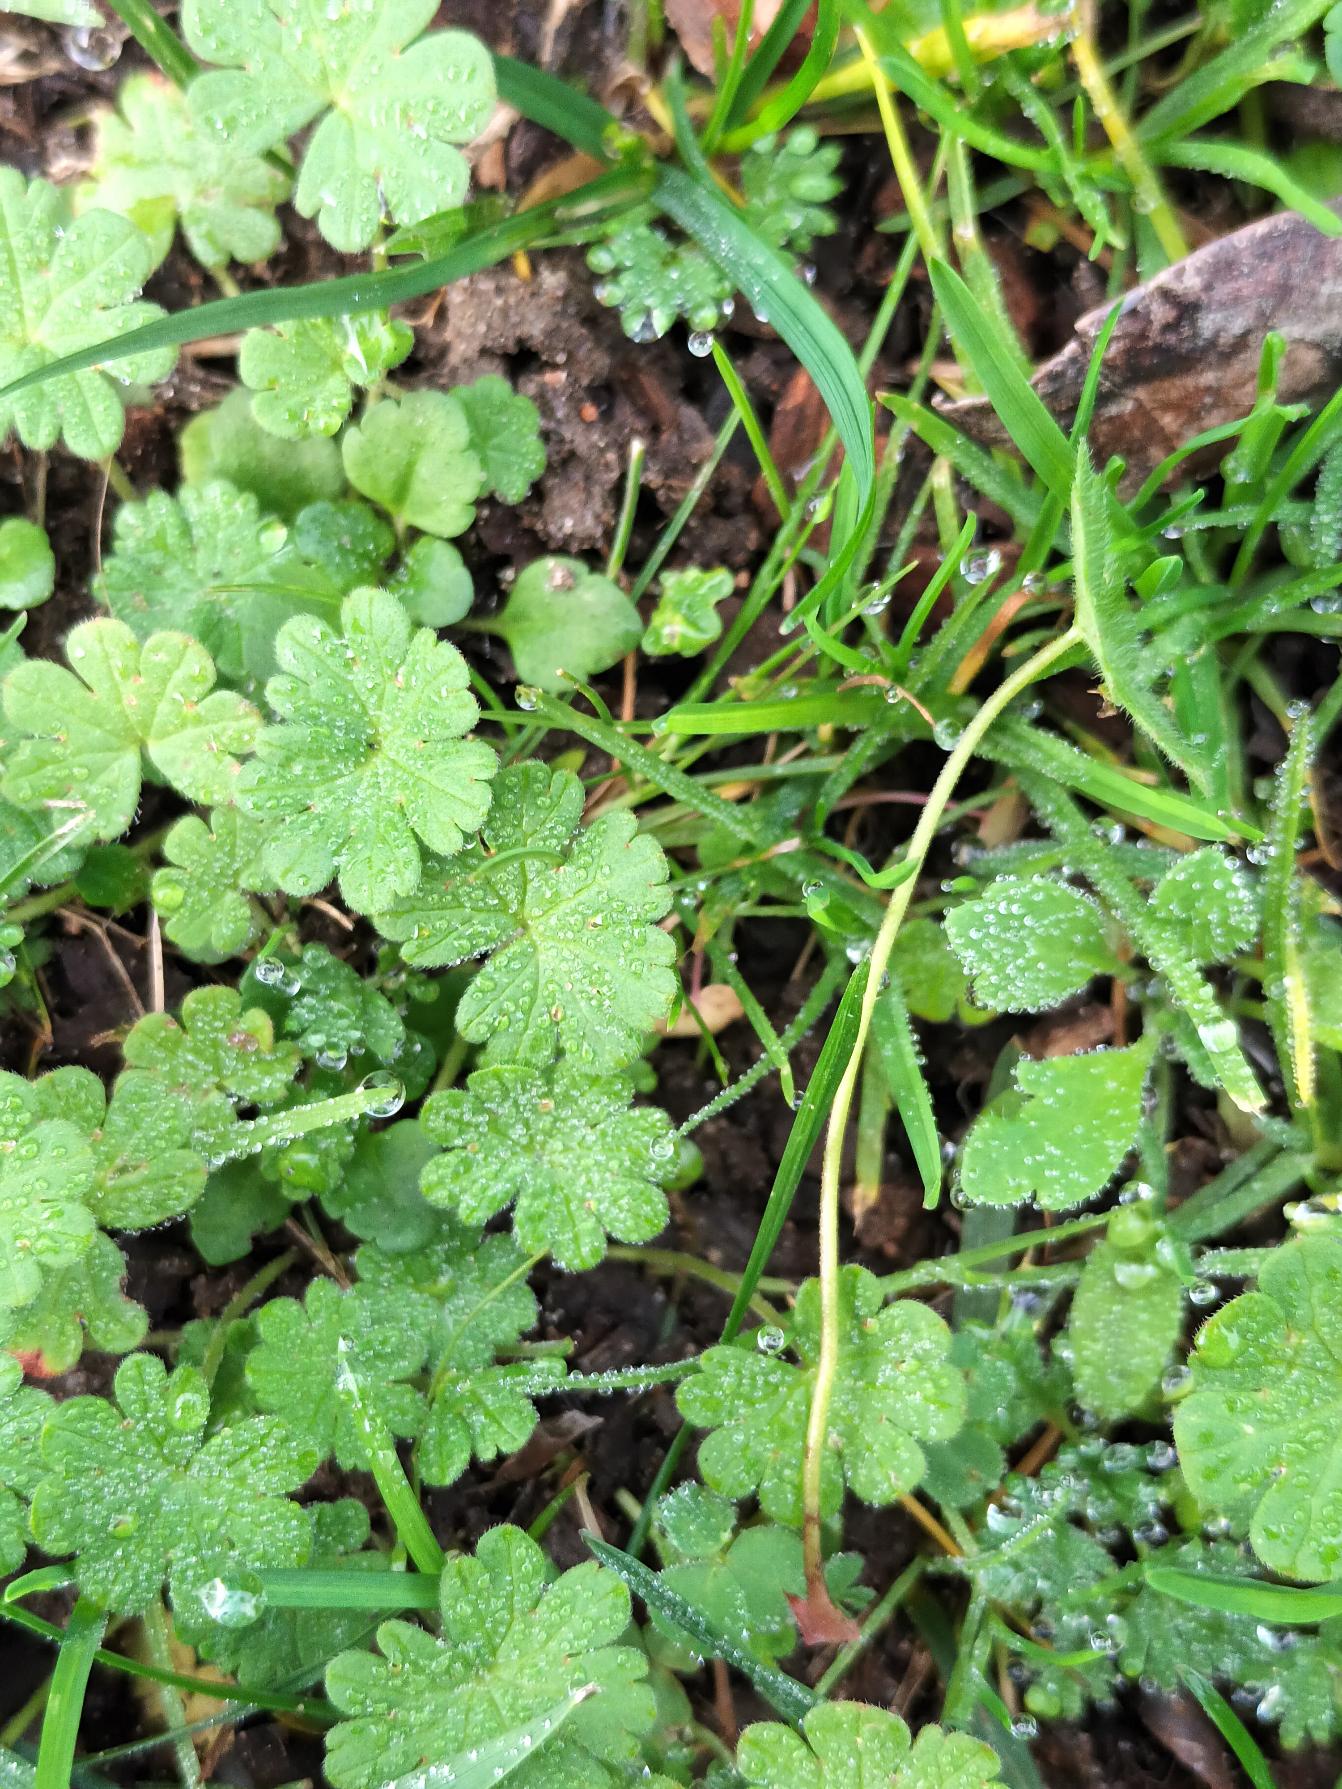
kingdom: Plantae
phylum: Tracheophyta
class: Magnoliopsida
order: Geraniales
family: Geraniaceae
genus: Geranium
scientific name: Geranium pusillum
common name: Liden storkenæb
